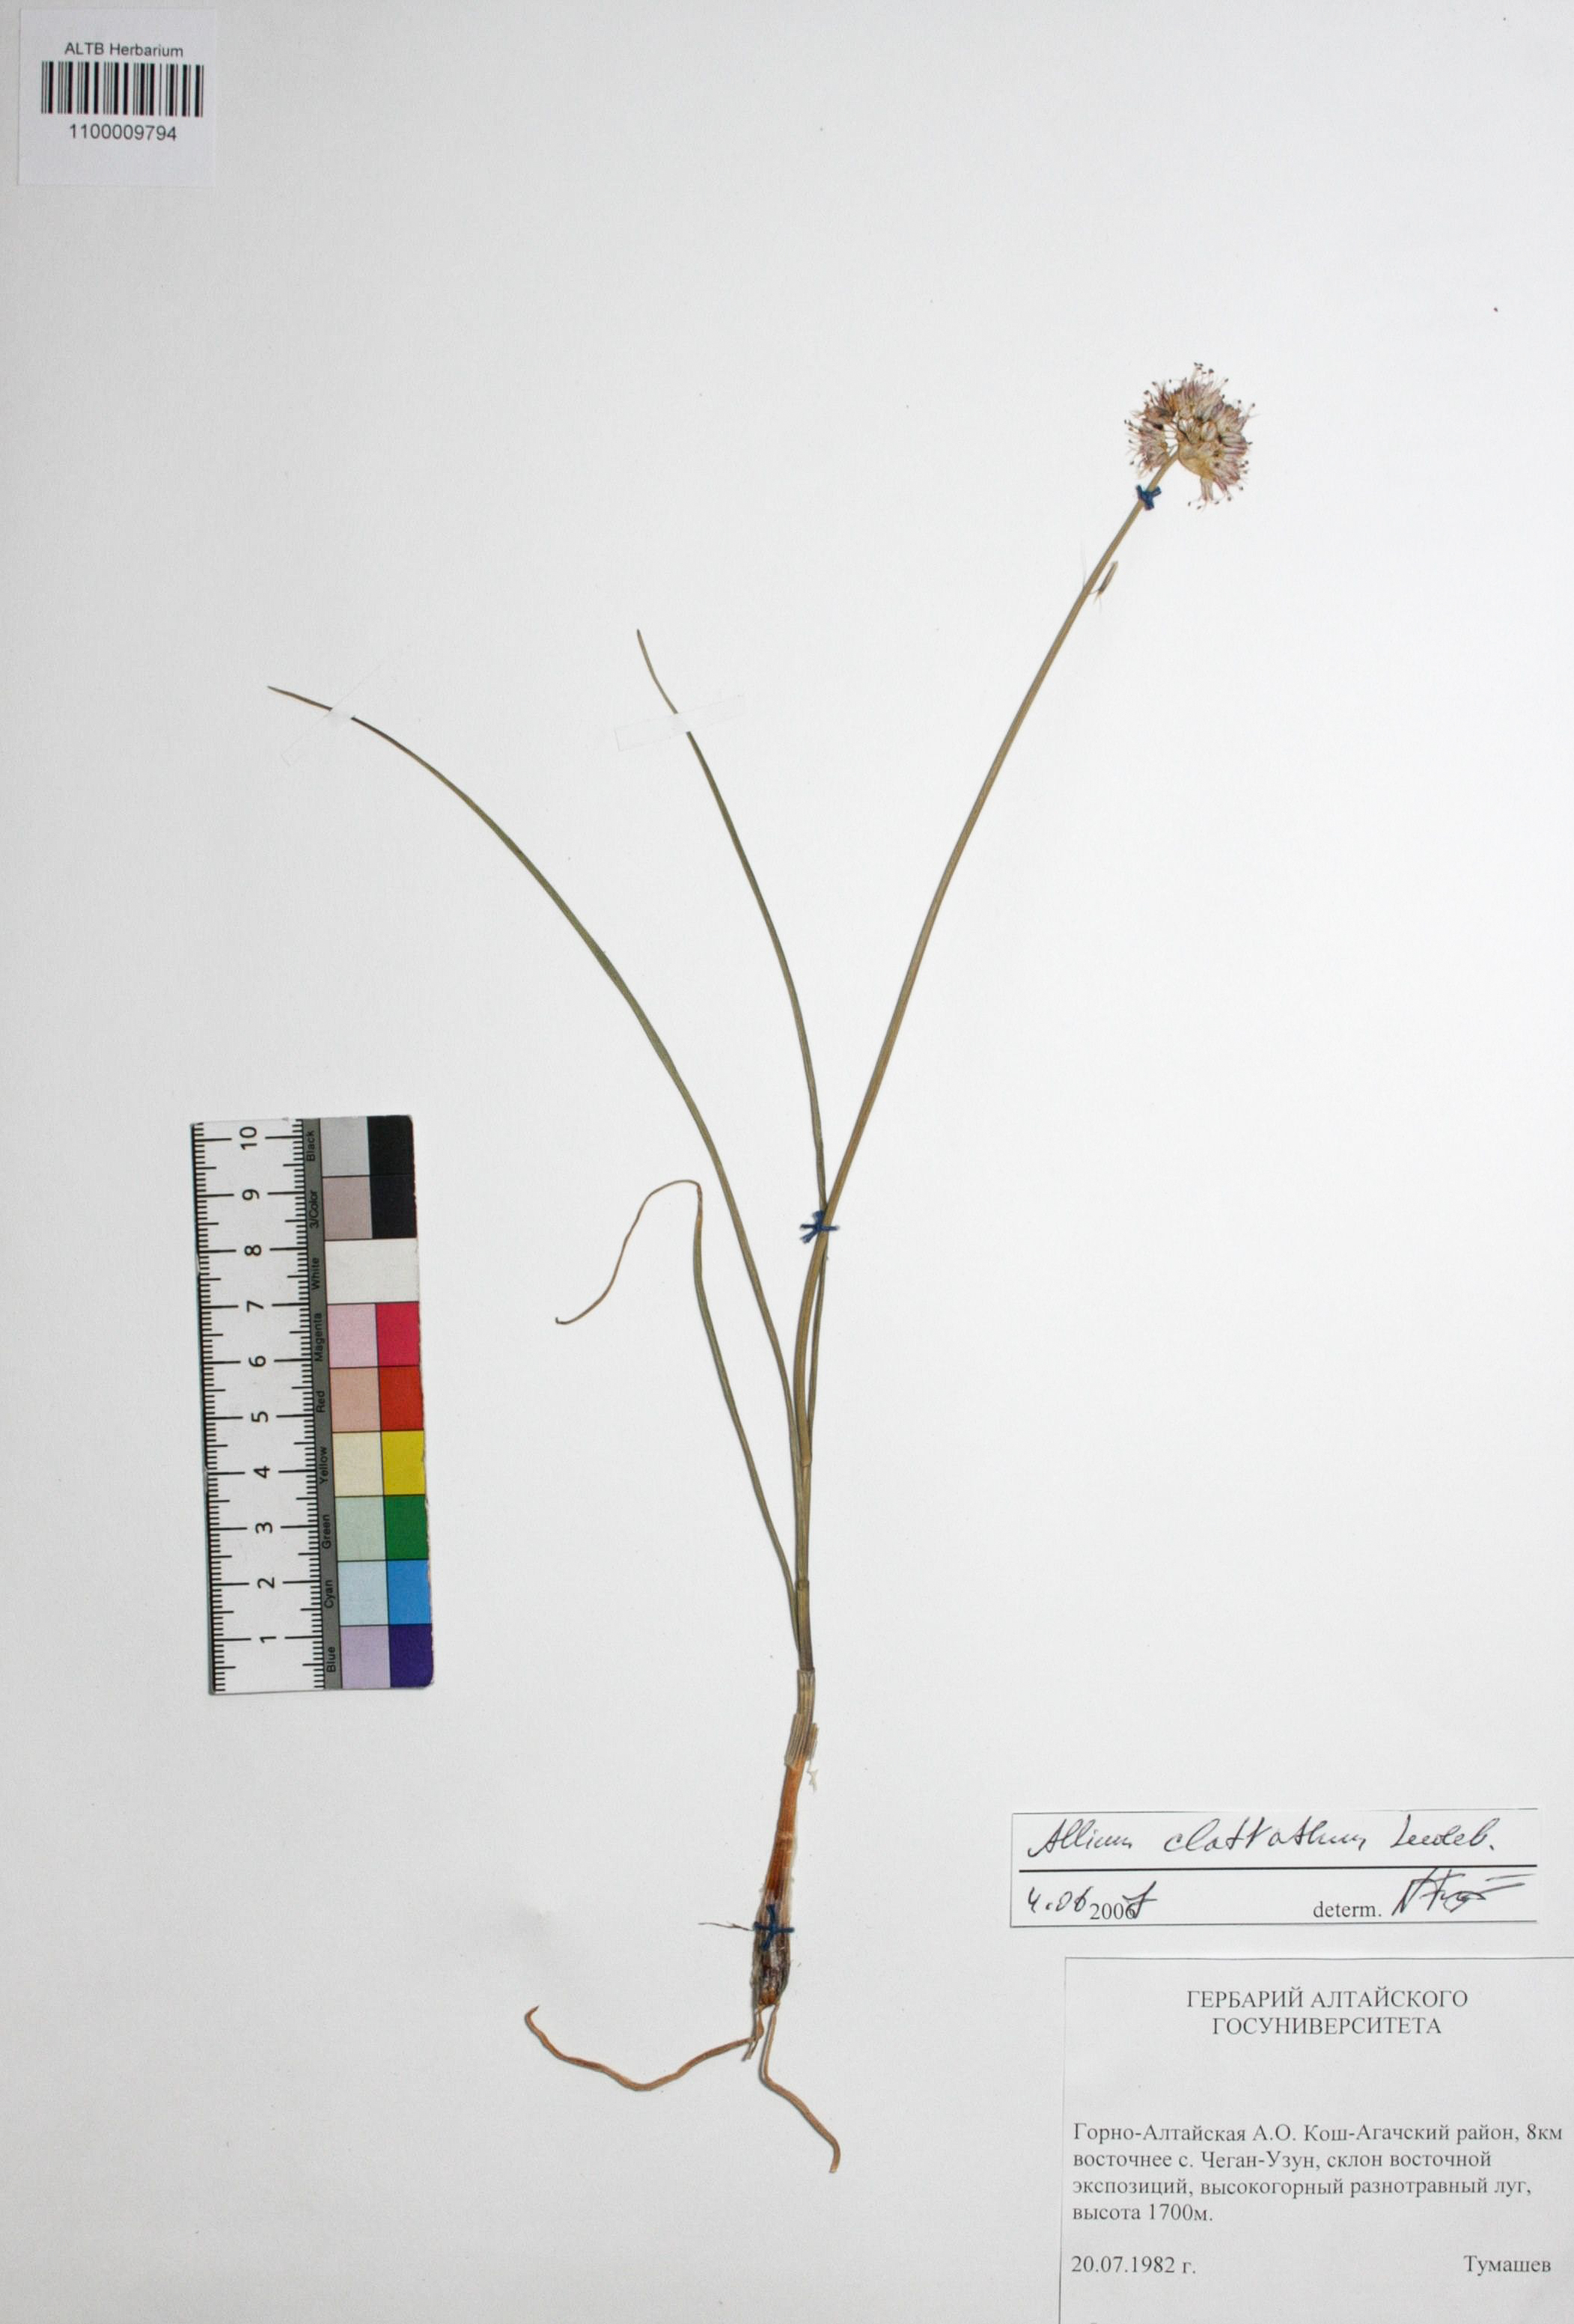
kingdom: Plantae
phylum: Tracheophyta
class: Liliopsida
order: Asparagales
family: Amaryllidaceae
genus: Allium
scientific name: Allium clathratum
